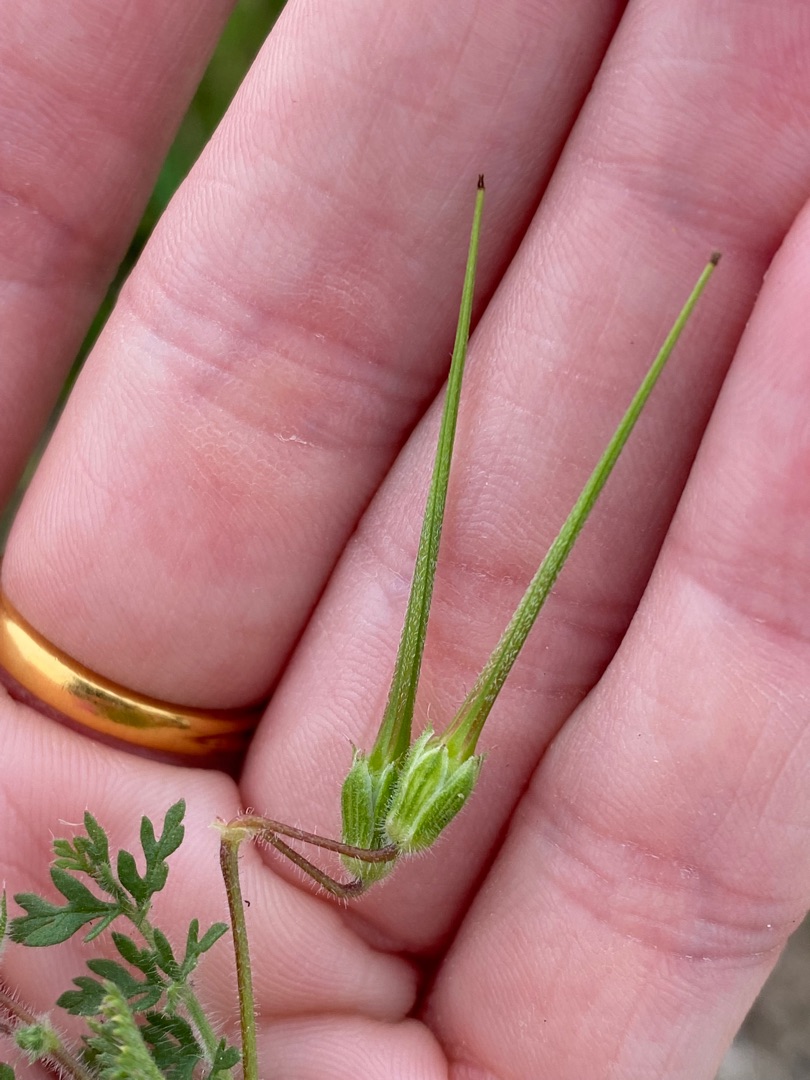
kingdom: Plantae
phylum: Tracheophyta
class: Magnoliopsida
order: Geraniales
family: Geraniaceae
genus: Erodium
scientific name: Erodium cicutarium
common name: Hejrenæb
